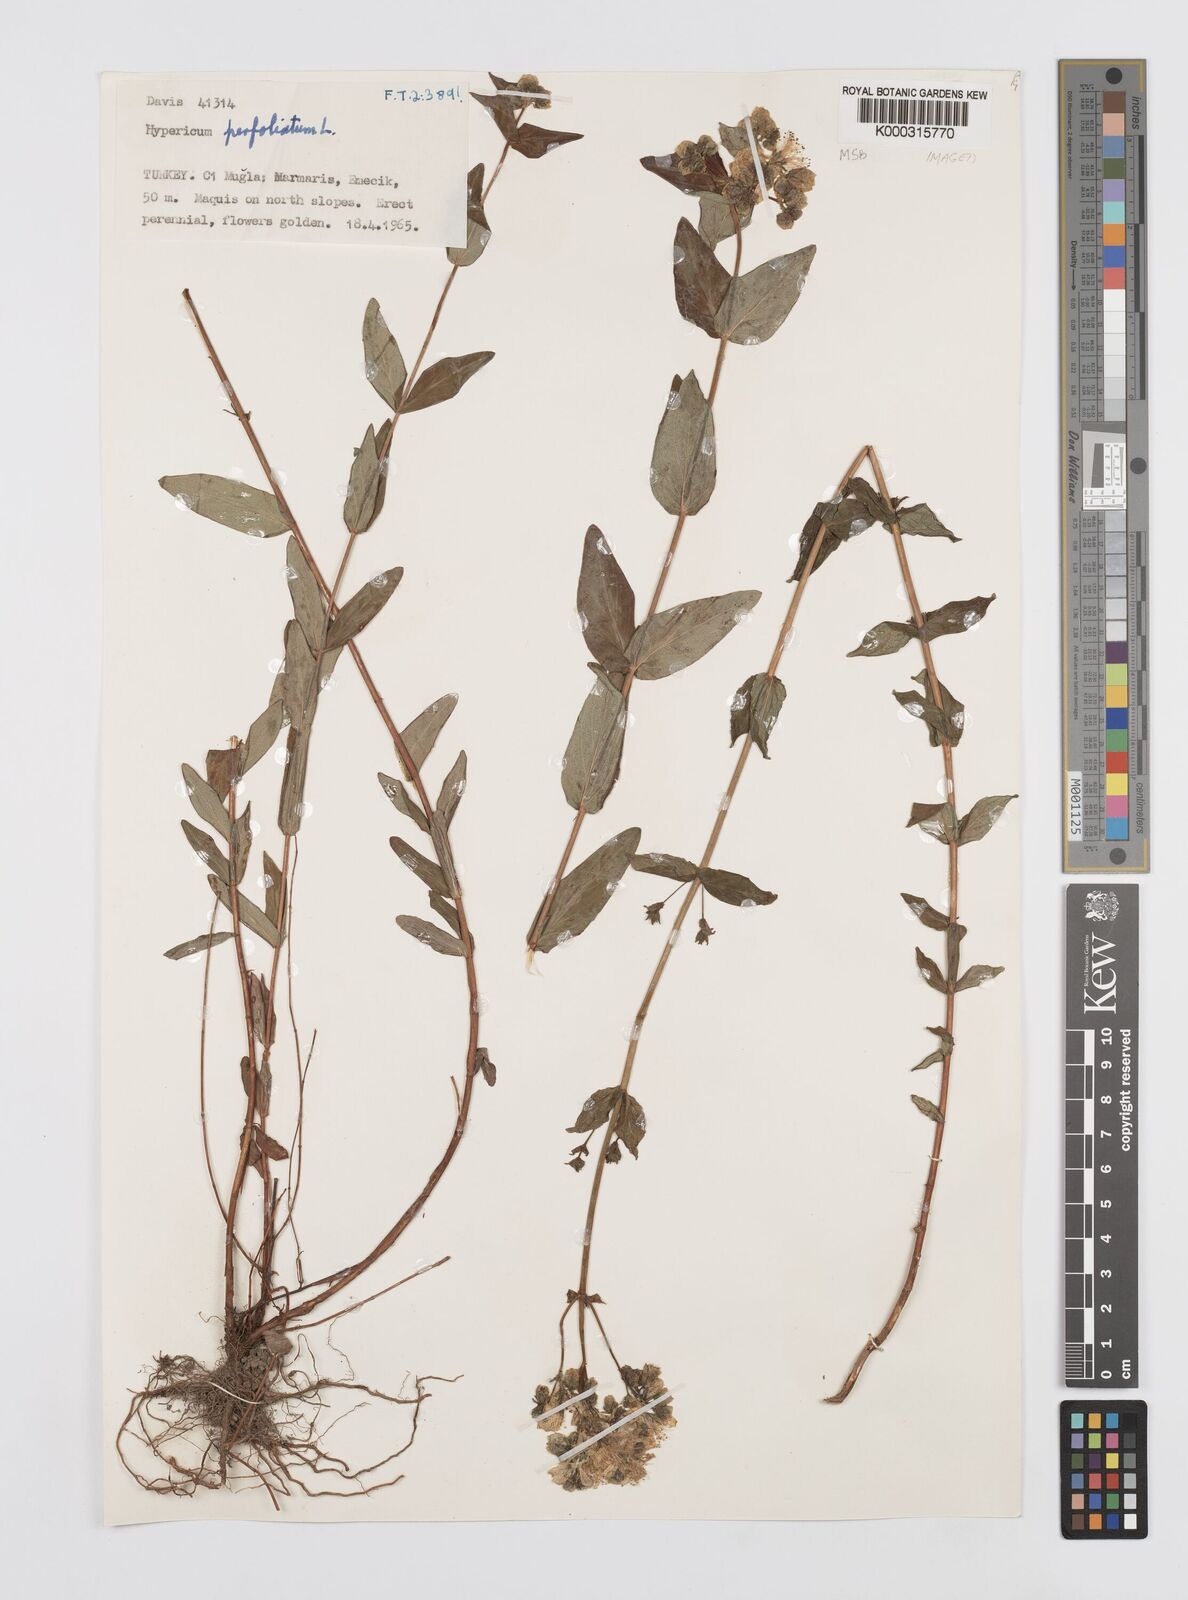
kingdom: Plantae
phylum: Tracheophyta
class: Magnoliopsida
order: Malpighiales
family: Hypericaceae
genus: Hypericum
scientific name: Hypericum perfoliatum
